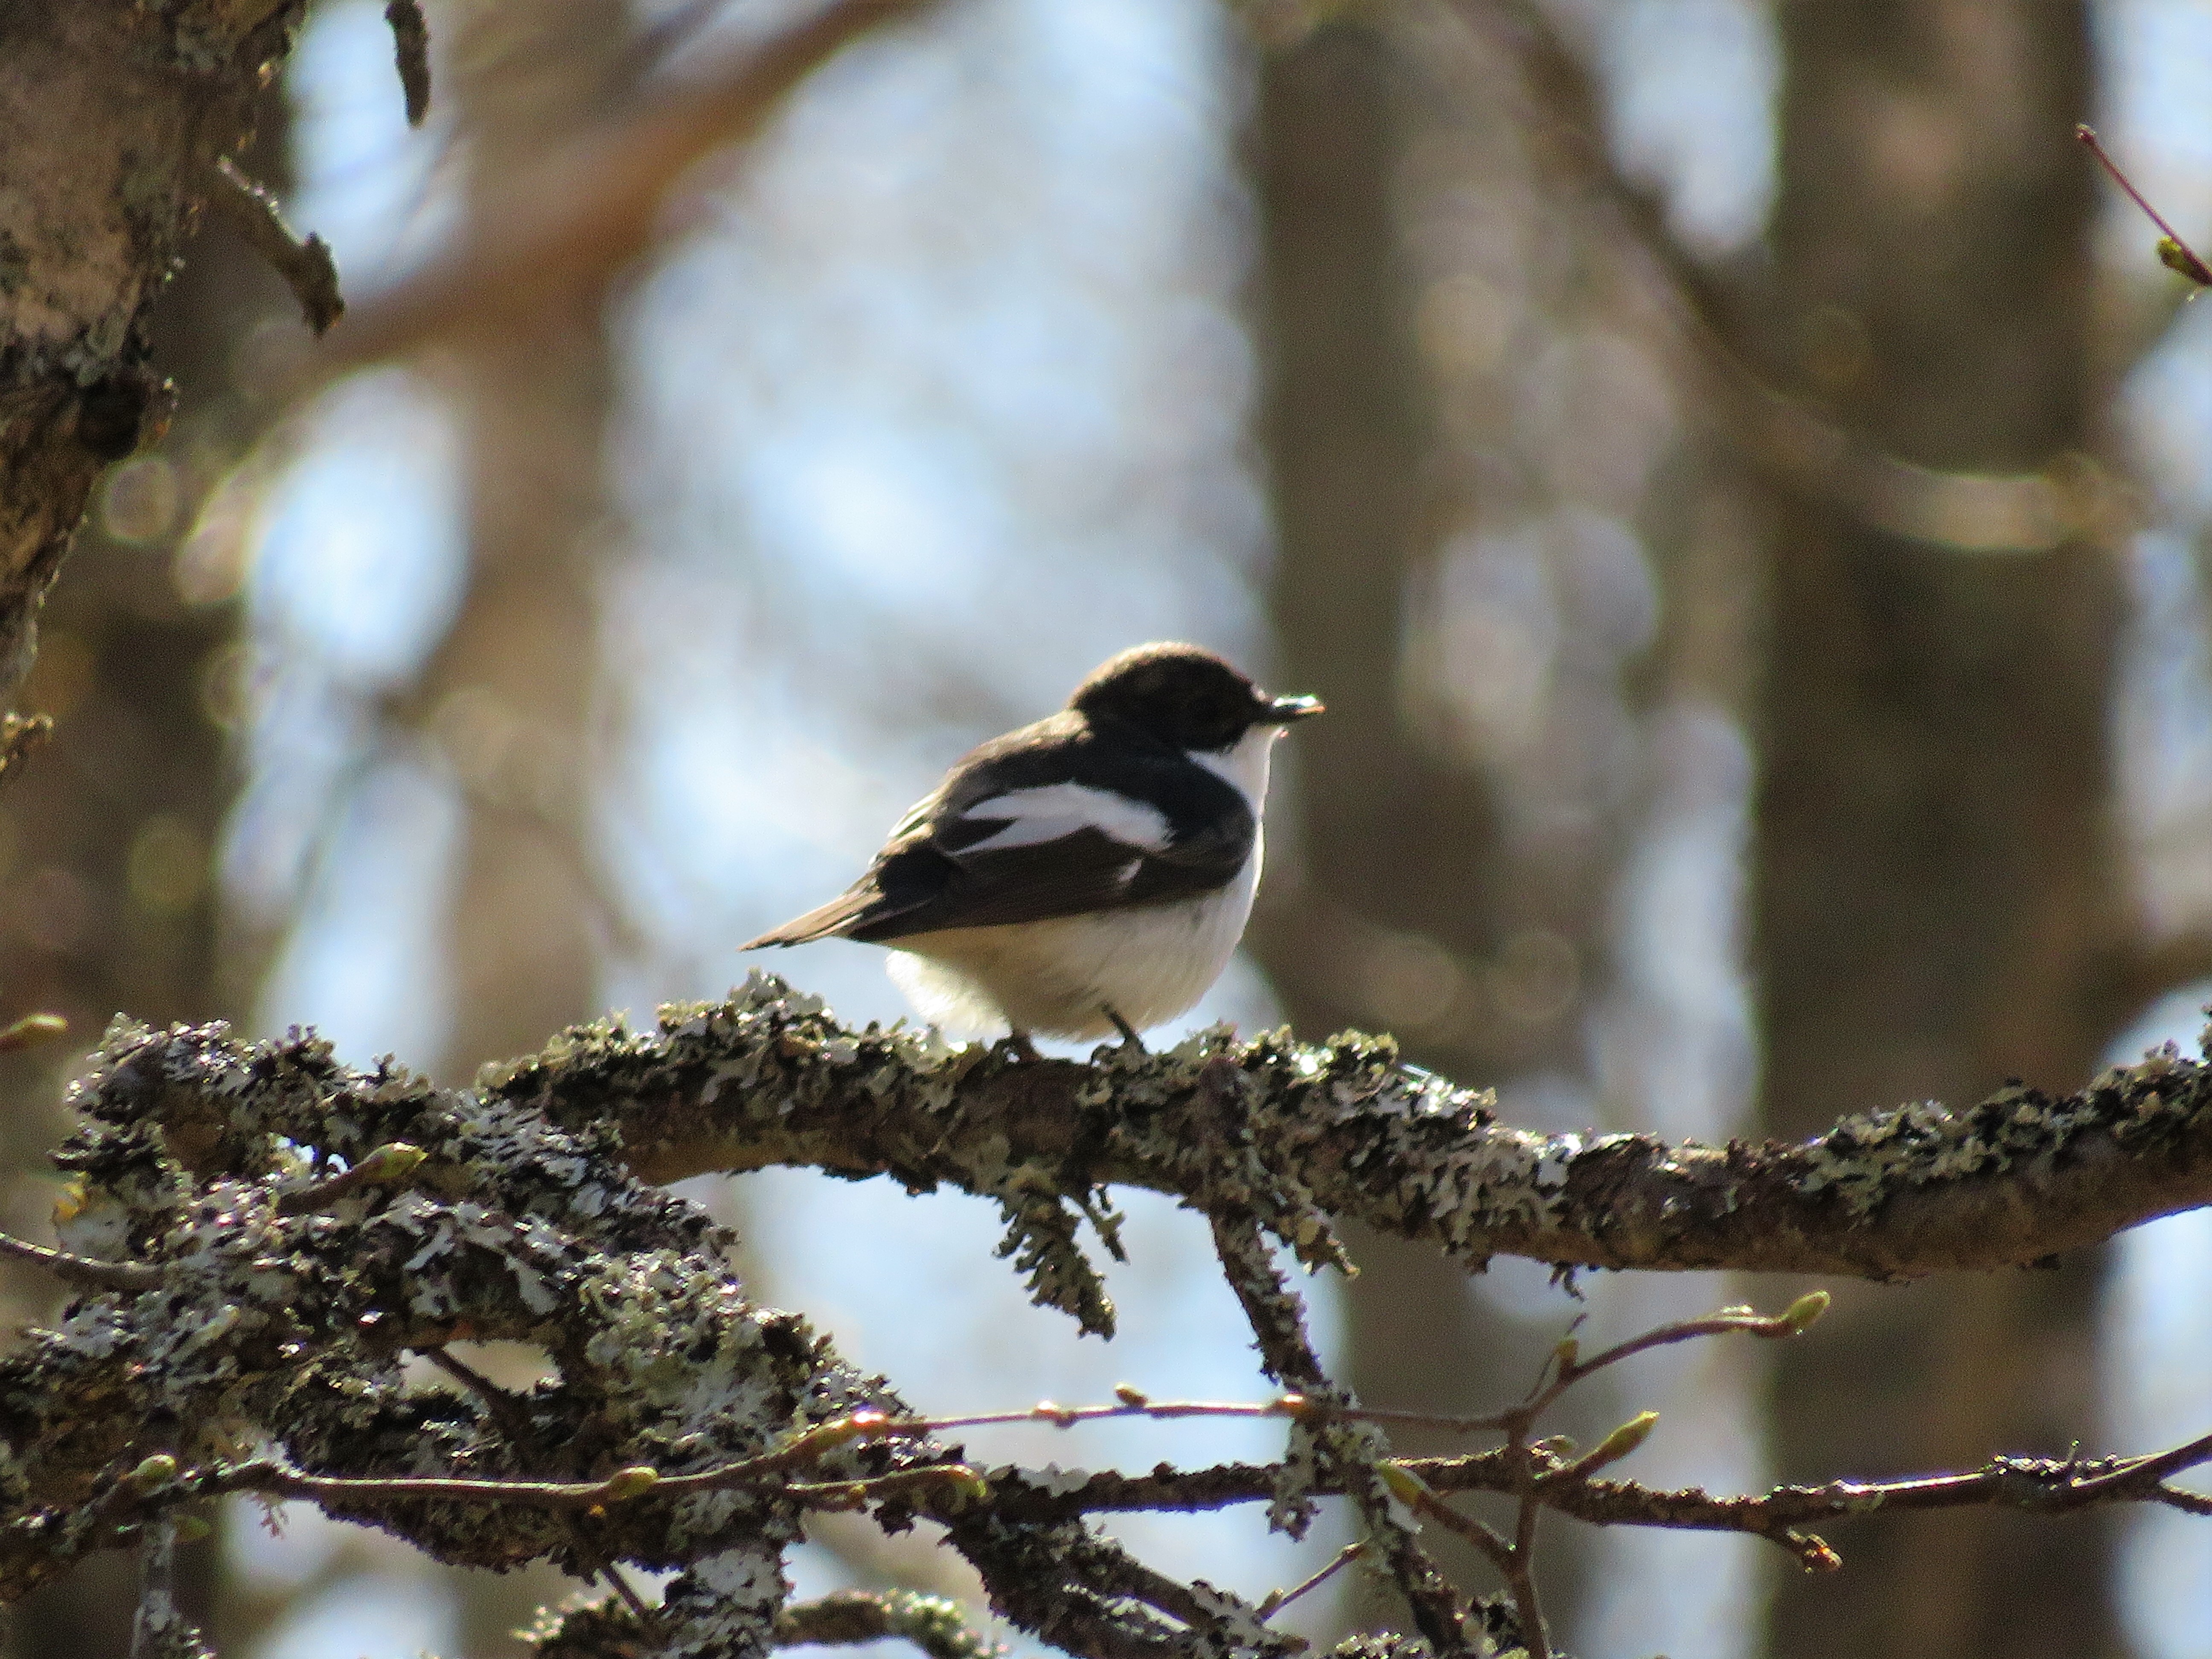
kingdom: Animalia
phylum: Chordata
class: Aves
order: Passeriformes
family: Muscicapidae
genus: Ficedula
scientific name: Ficedula hypoleuca
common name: European pied flycatcher
